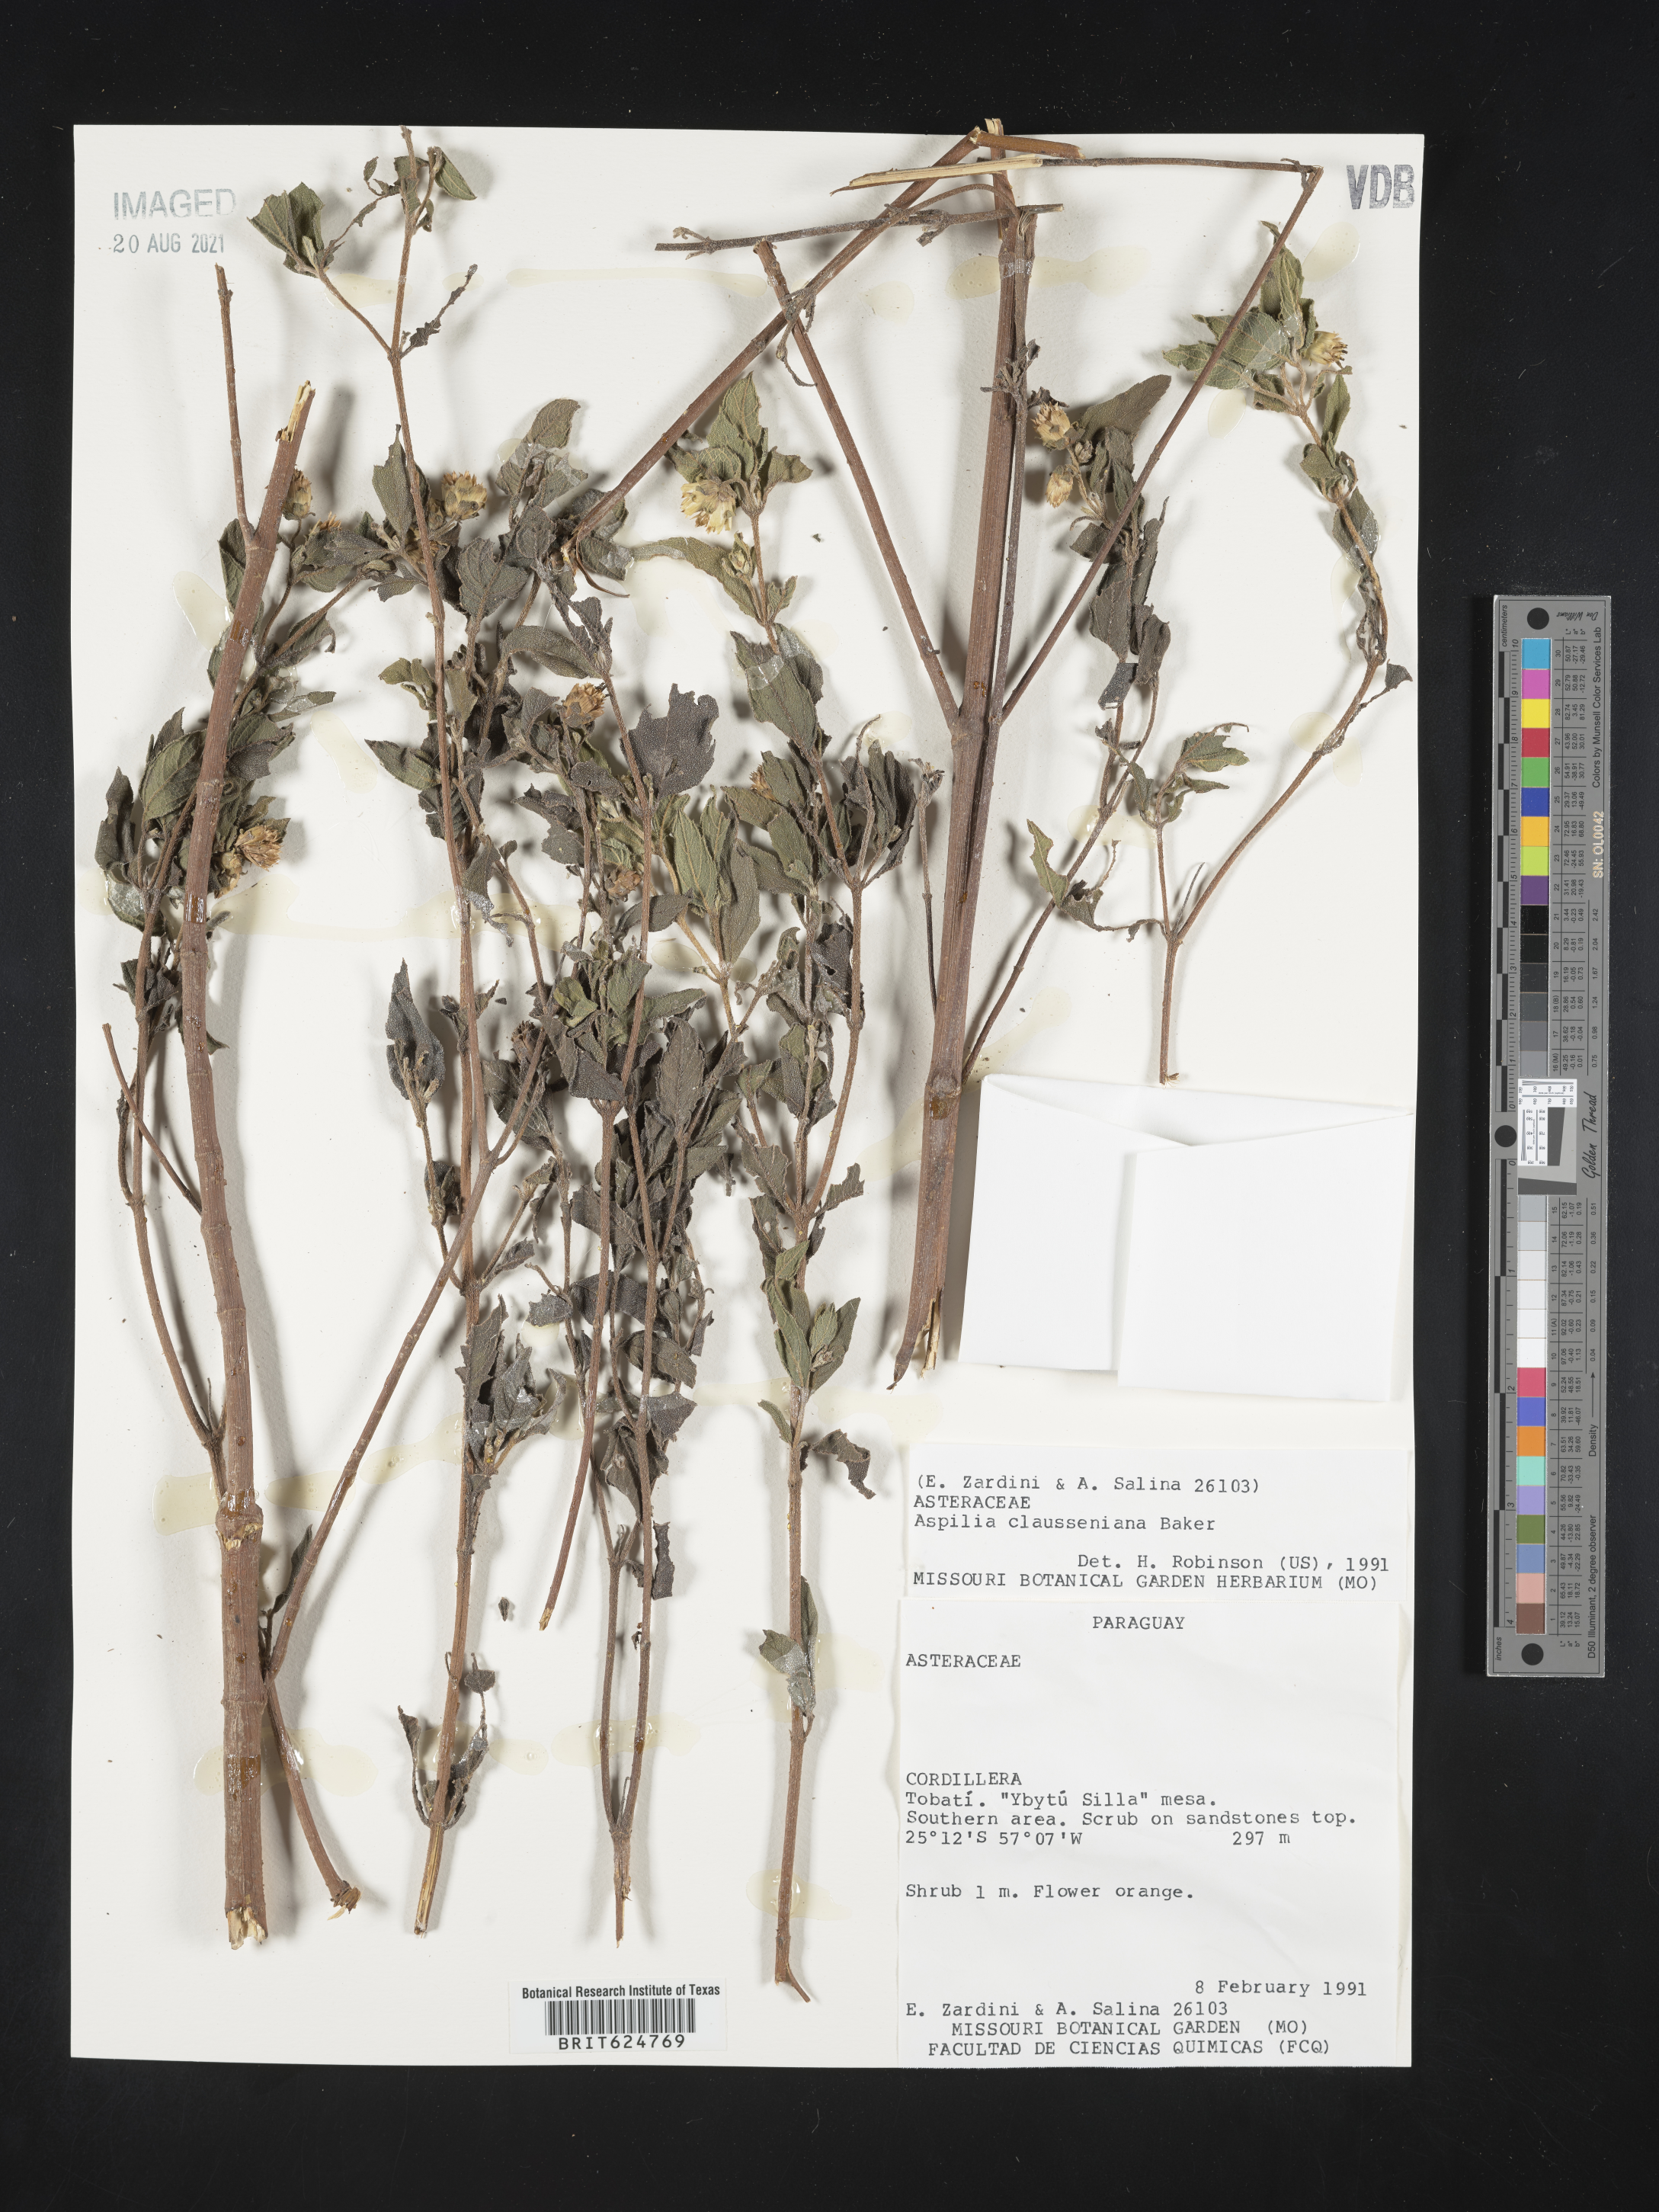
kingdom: Plantae
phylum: Tracheophyta
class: Magnoliopsida
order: Asterales
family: Asteraceae
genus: Aspilia
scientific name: Aspilia clausseniana
